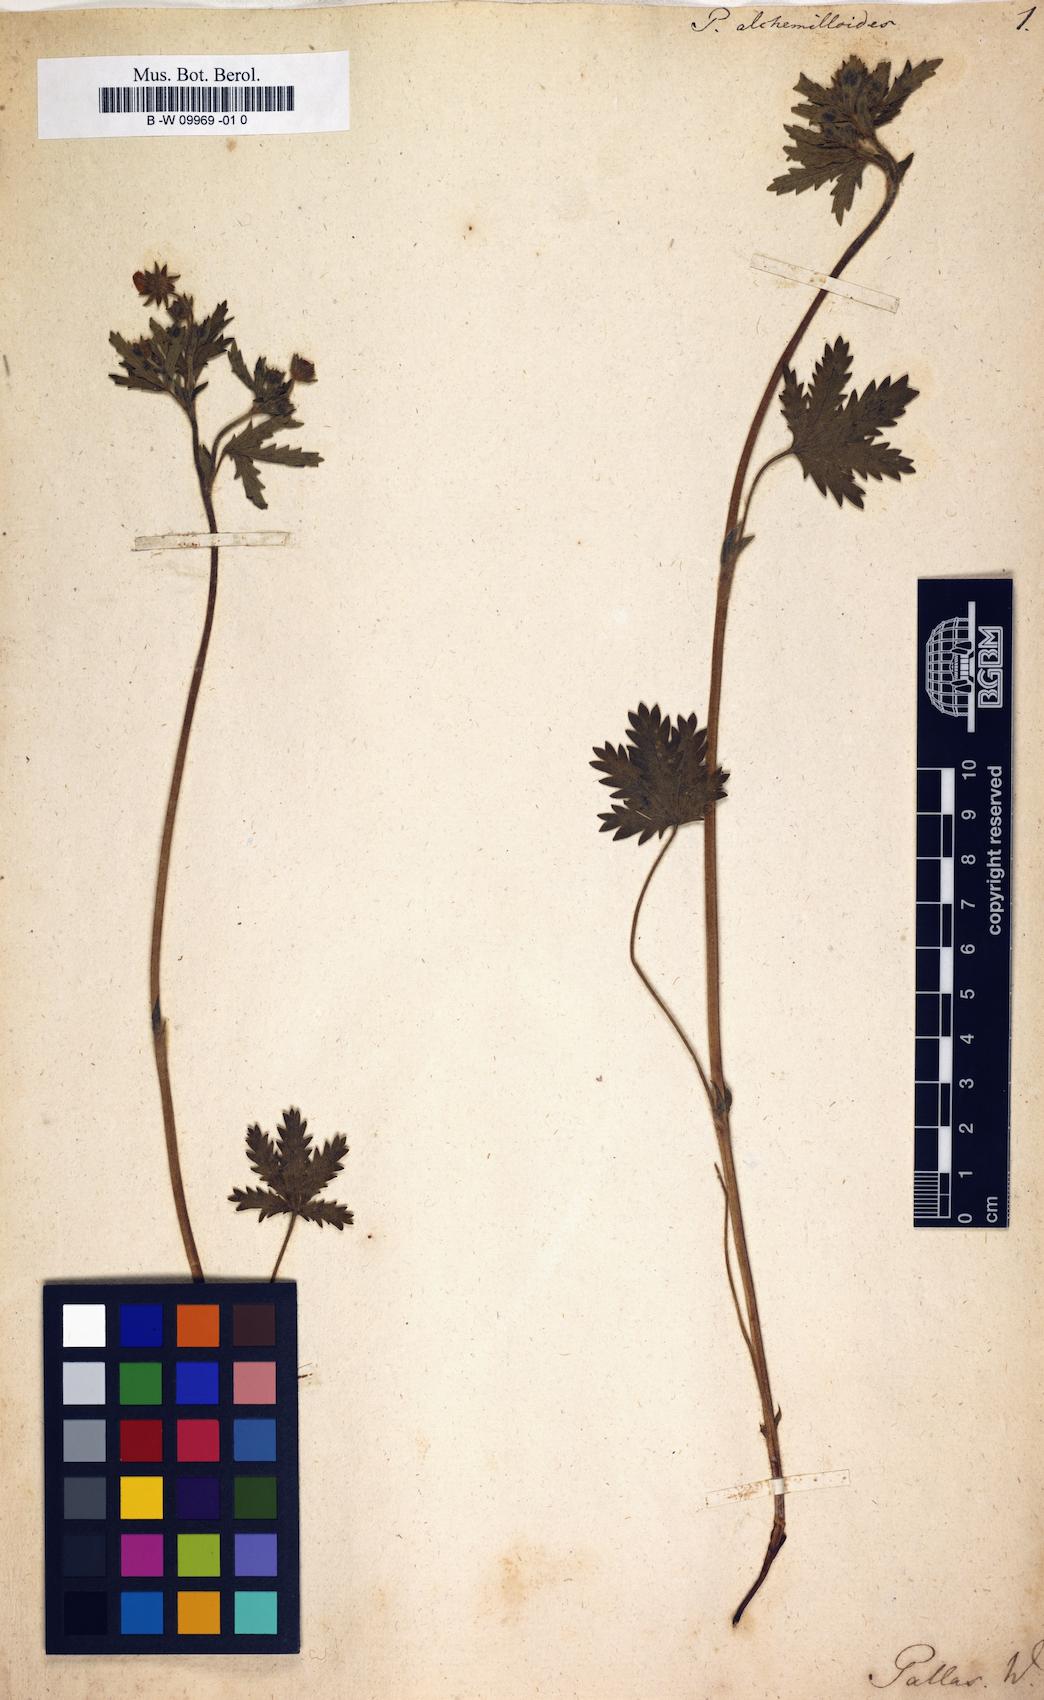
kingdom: Plantae
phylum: Tracheophyta
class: Magnoliopsida
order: Rosales
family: Rosaceae
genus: Potentilla
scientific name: Potentilla alchemilloides
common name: Alchemilla-leaved cinquefoil
